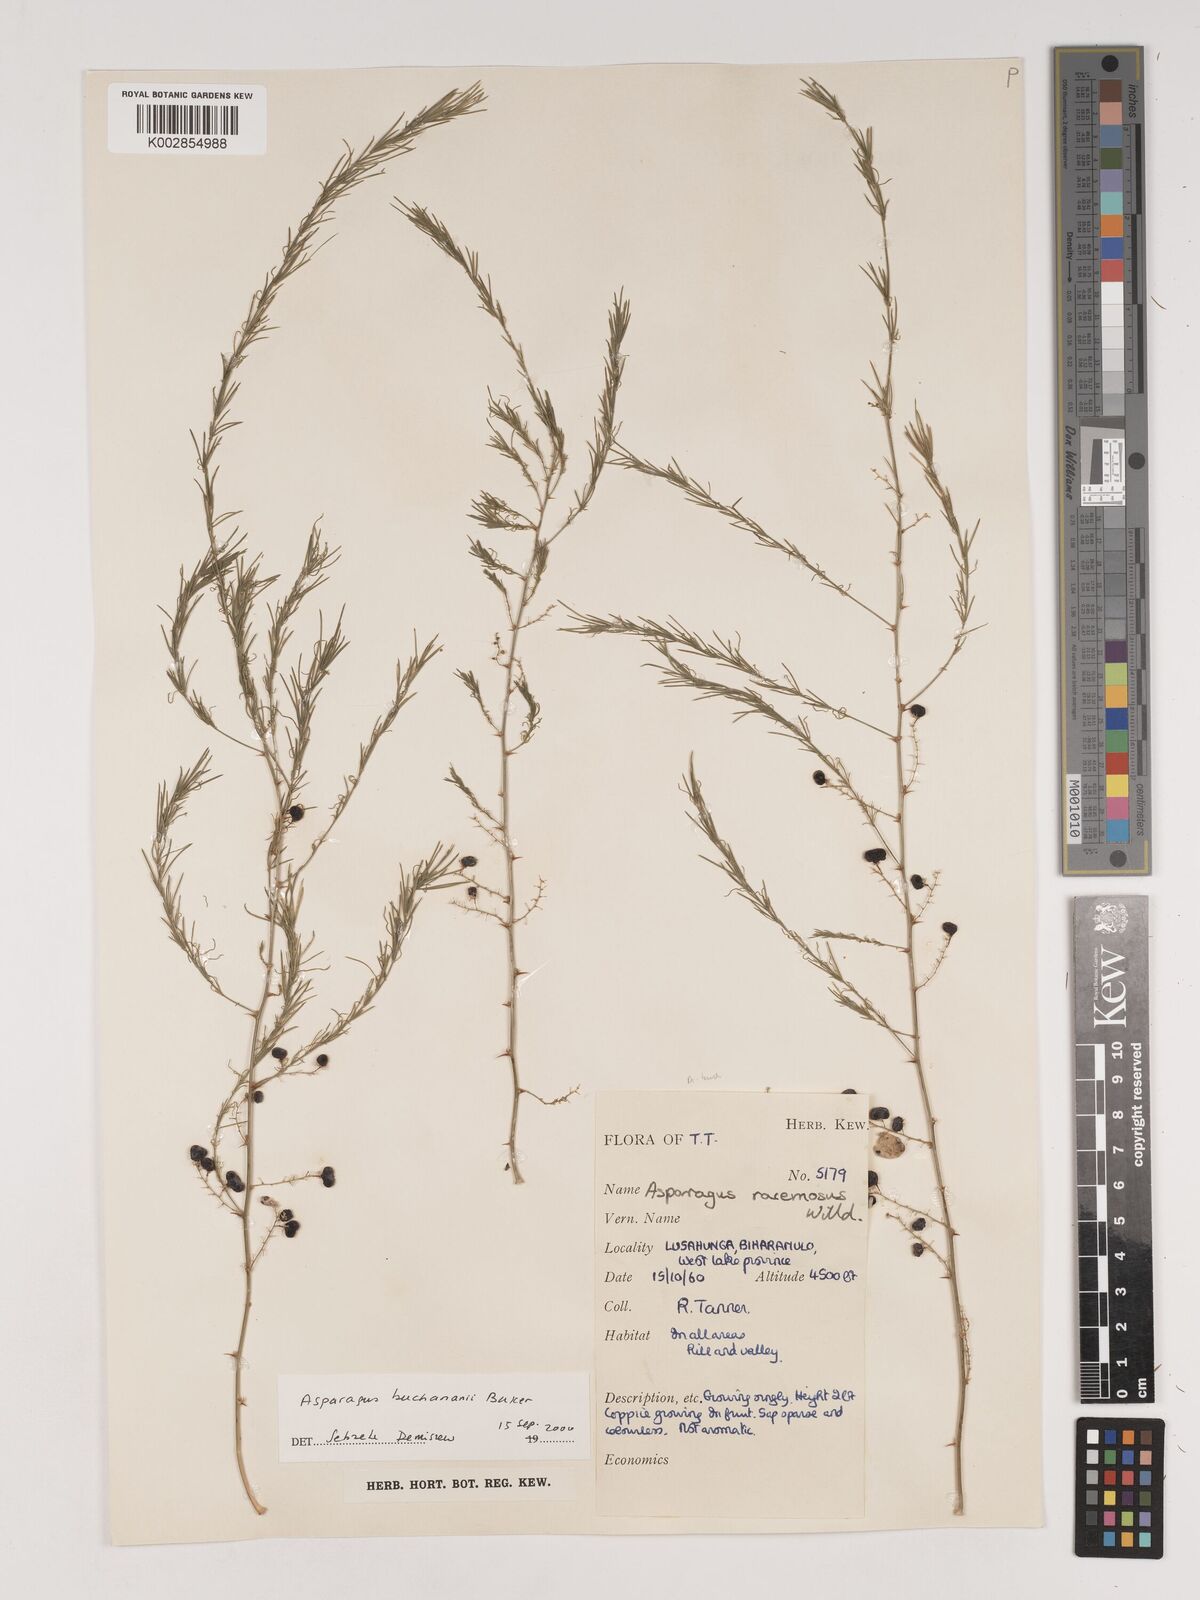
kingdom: Plantae
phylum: Tracheophyta
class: Liliopsida
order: Asparagales
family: Asparagaceae
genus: Asparagus
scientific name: Asparagus buchananii
